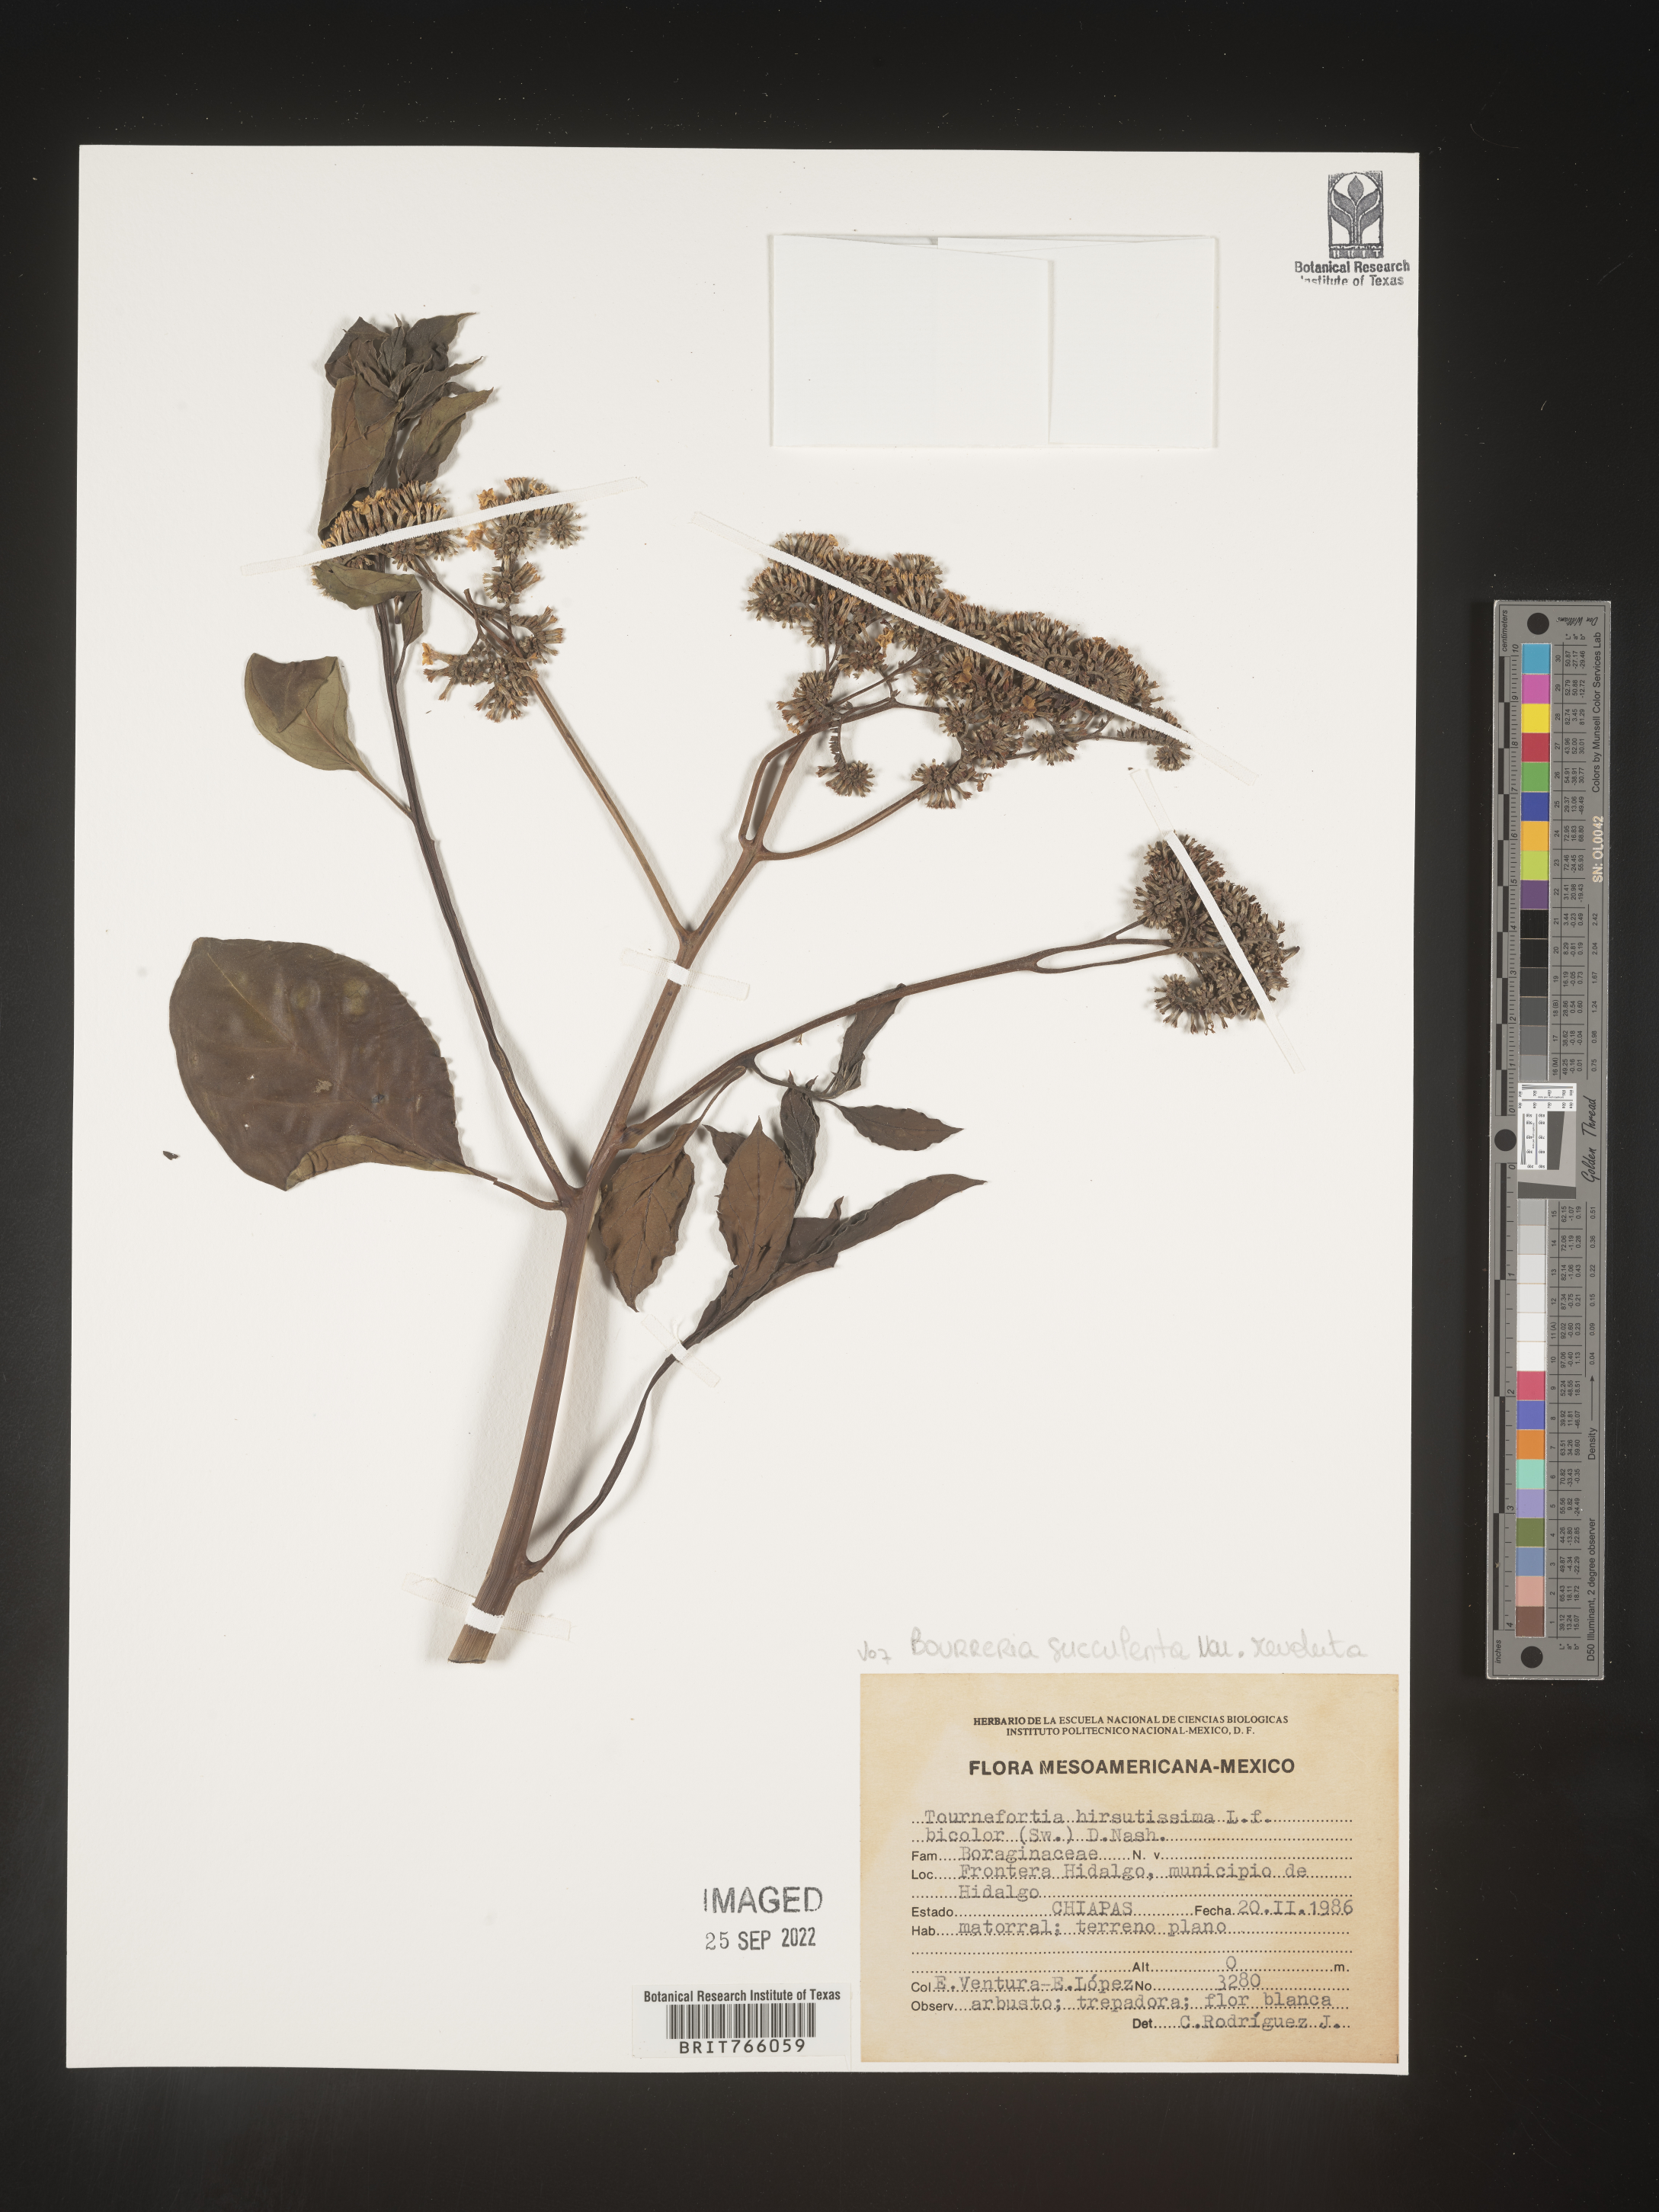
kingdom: Plantae
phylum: Tracheophyta
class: Magnoliopsida
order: Boraginales
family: Ehretiaceae
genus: Bourreria
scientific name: Bourreria
